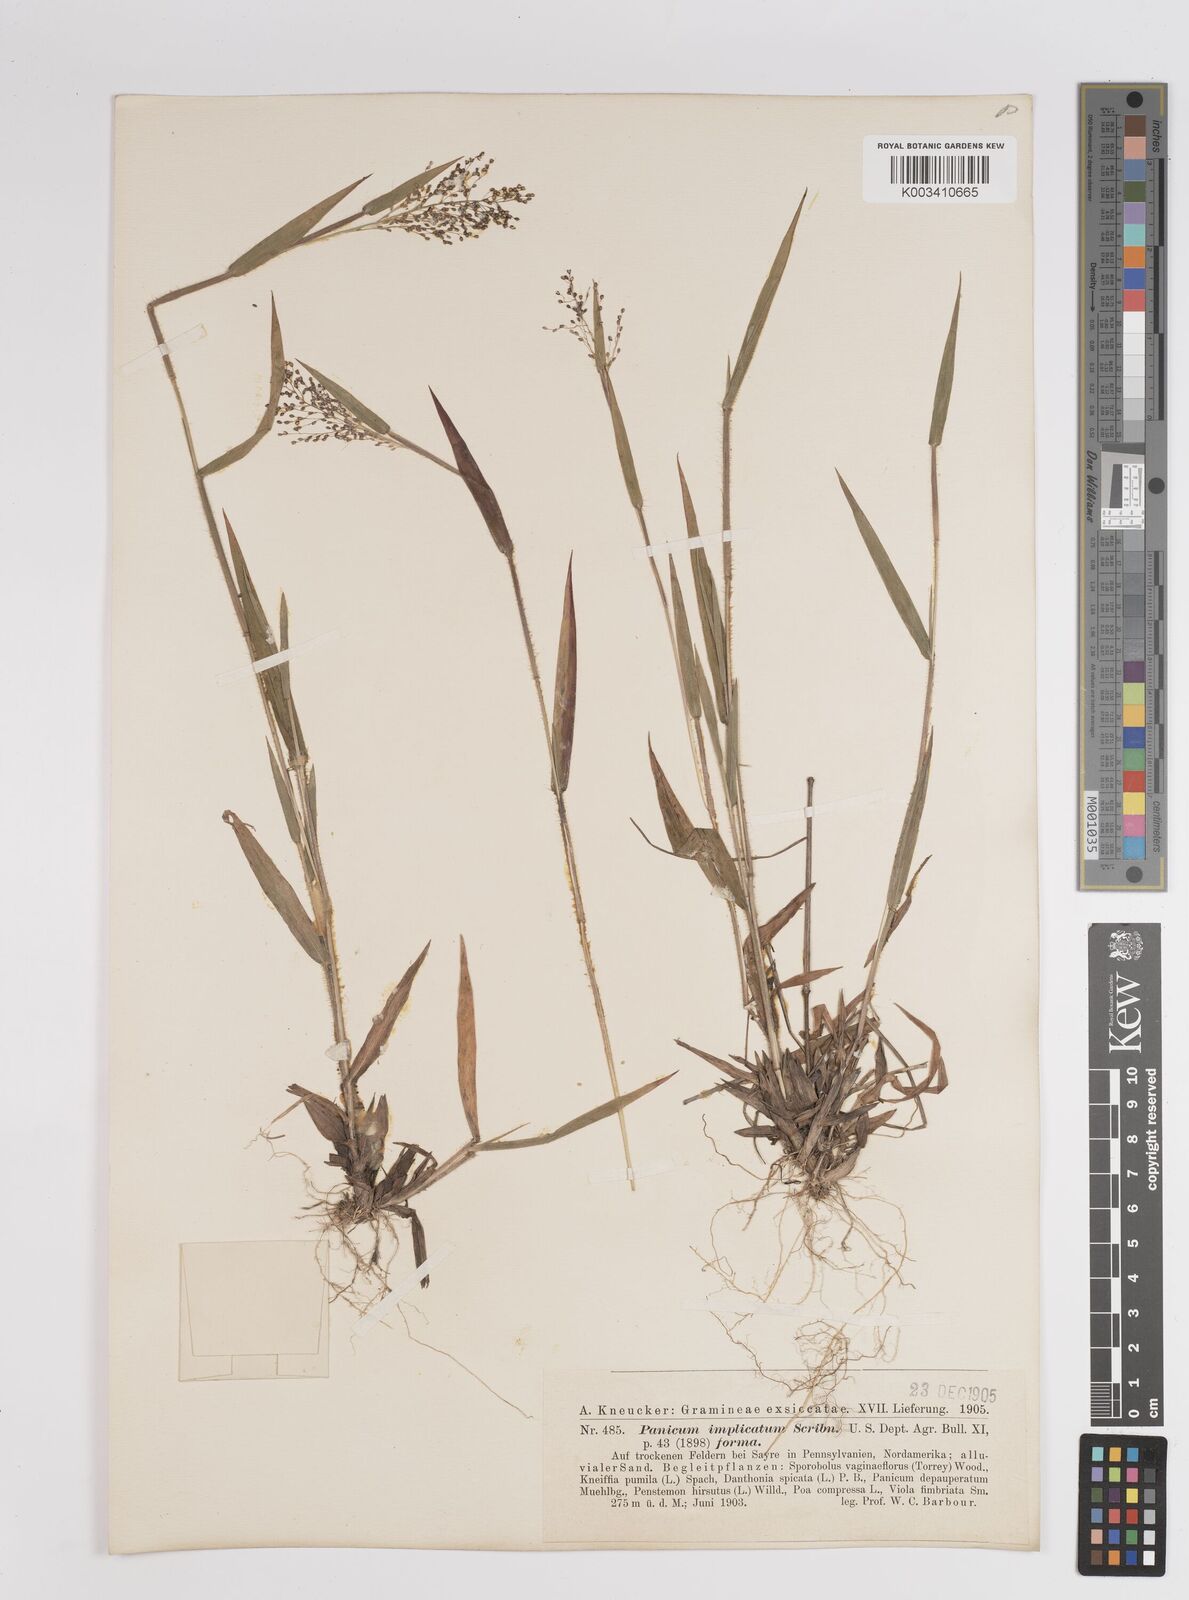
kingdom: Plantae
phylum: Tracheophyta
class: Liliopsida
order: Poales
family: Poaceae
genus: Dichanthelium
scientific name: Dichanthelium implicatum
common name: Slender-stemmed panicgrass
